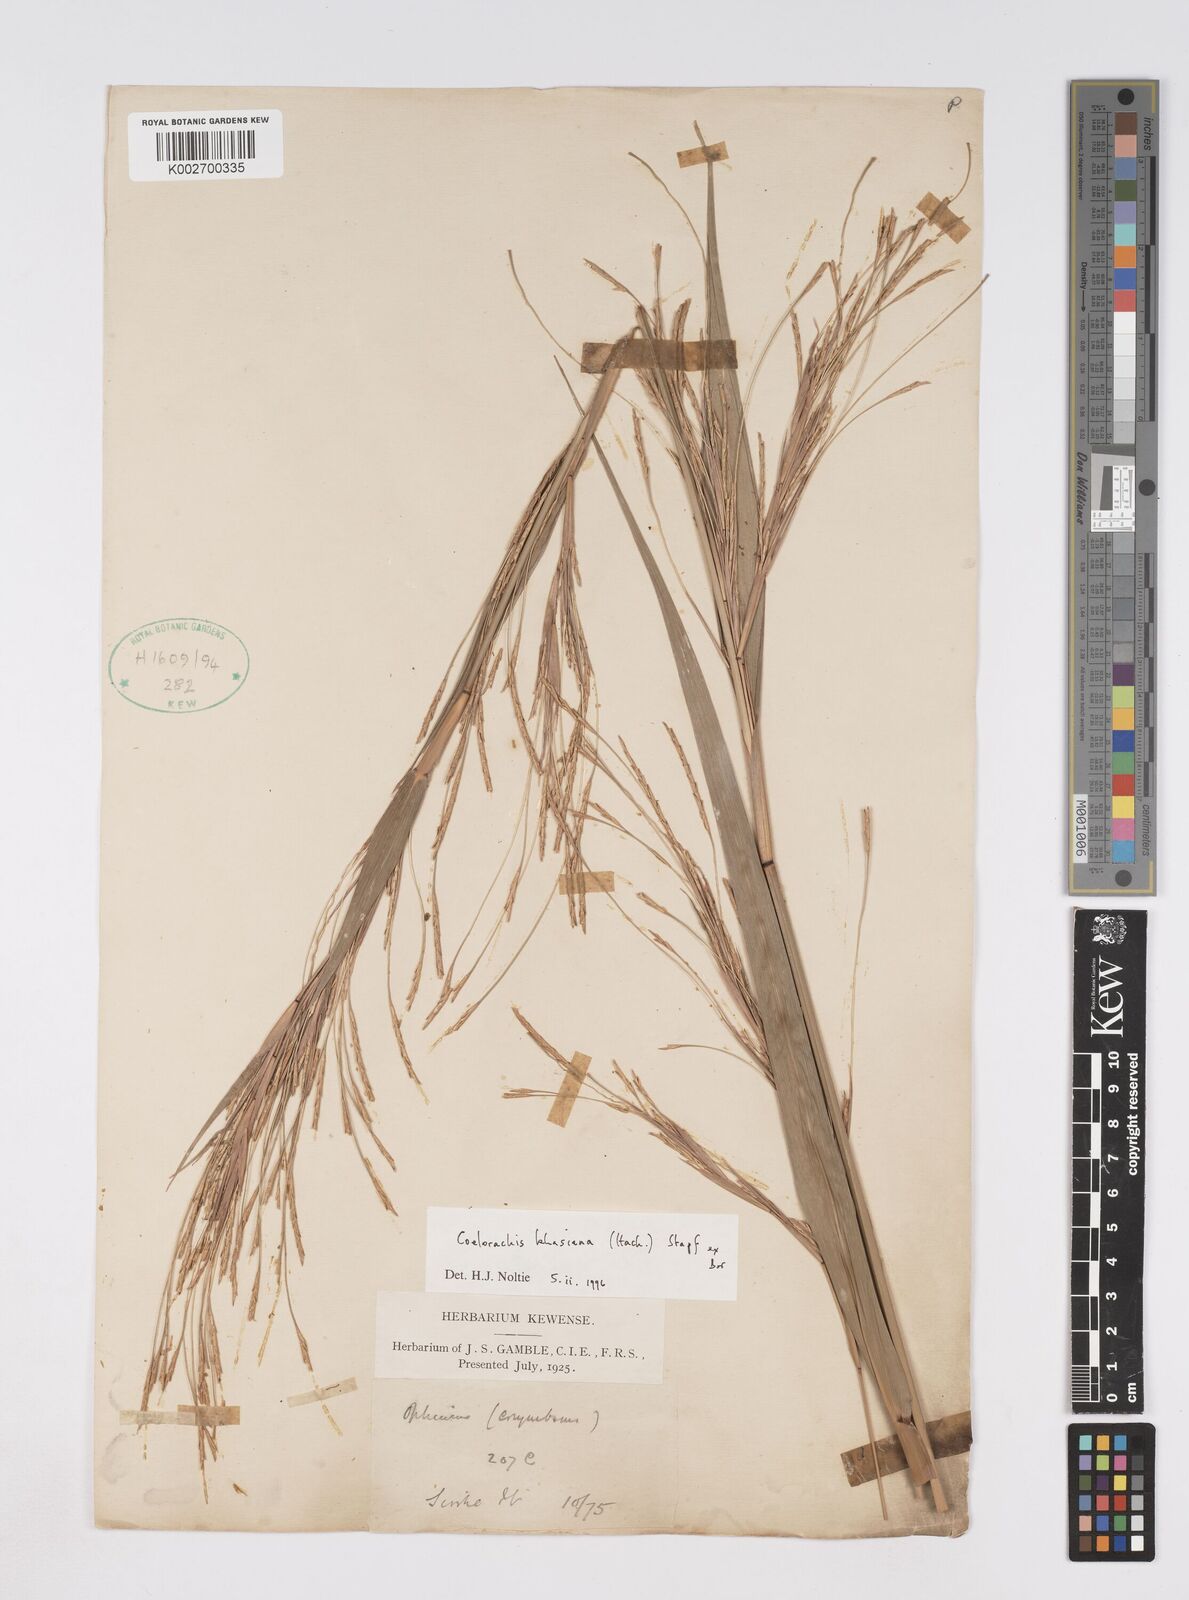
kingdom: Plantae
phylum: Tracheophyta
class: Liliopsida
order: Poales
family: Poaceae
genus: Rottboellia
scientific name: Rottboellia striata
